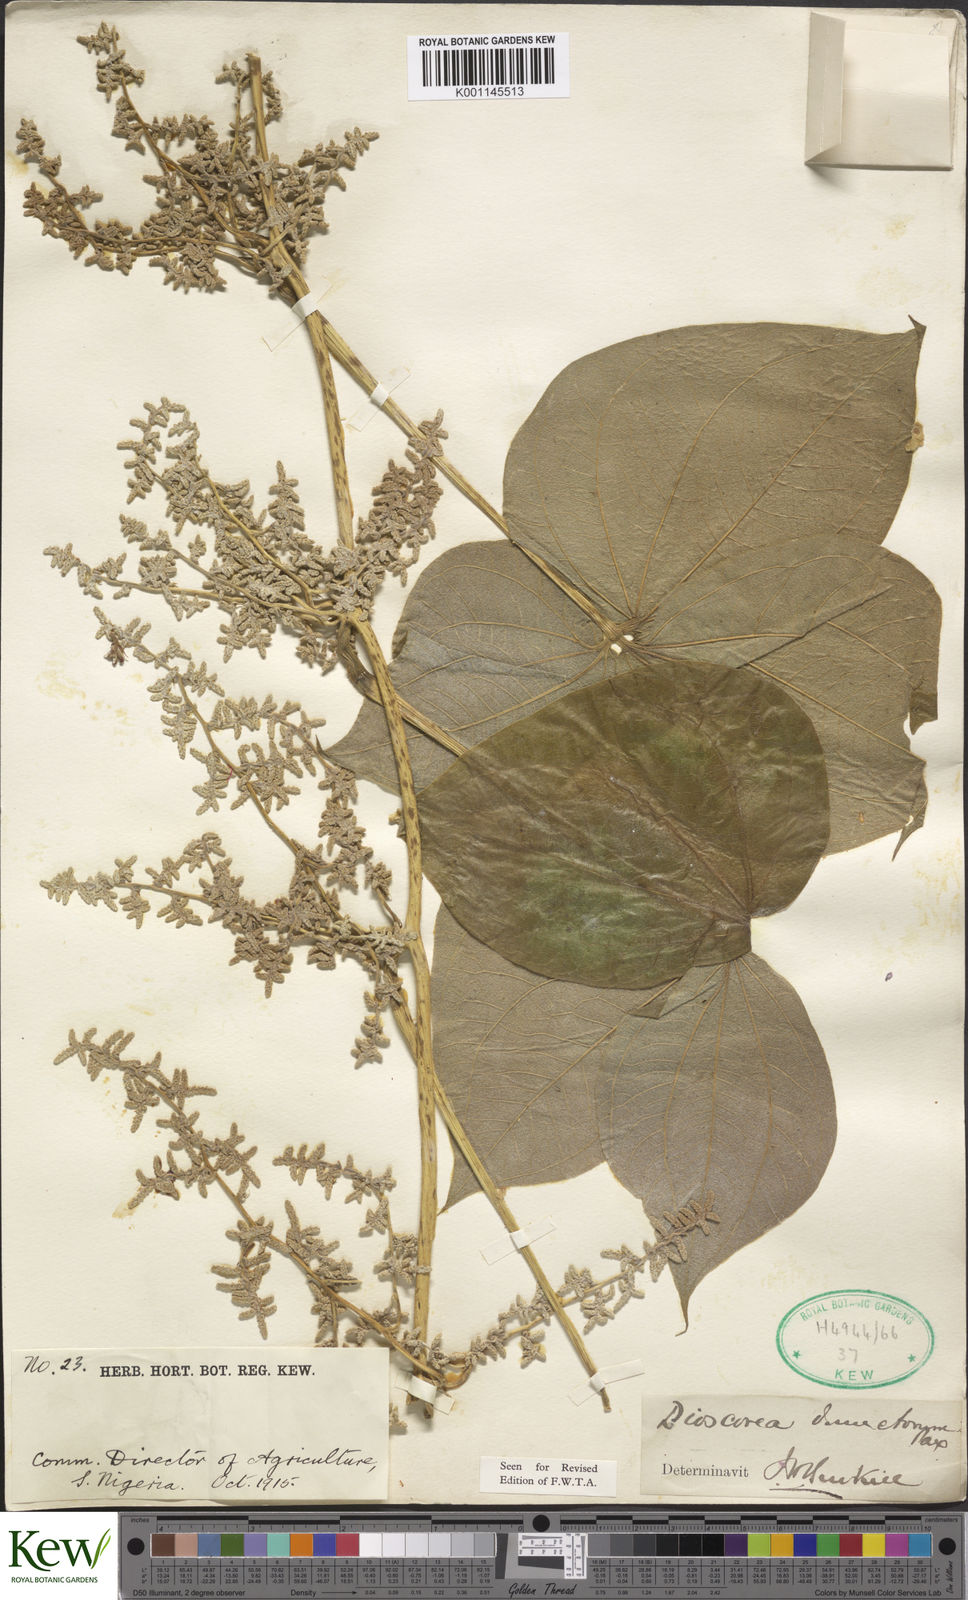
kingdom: Plantae
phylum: Tracheophyta
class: Liliopsida
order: Dioscoreales
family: Dioscoreaceae
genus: Dioscorea
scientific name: Dioscorea dumetorum
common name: African bitter yam
